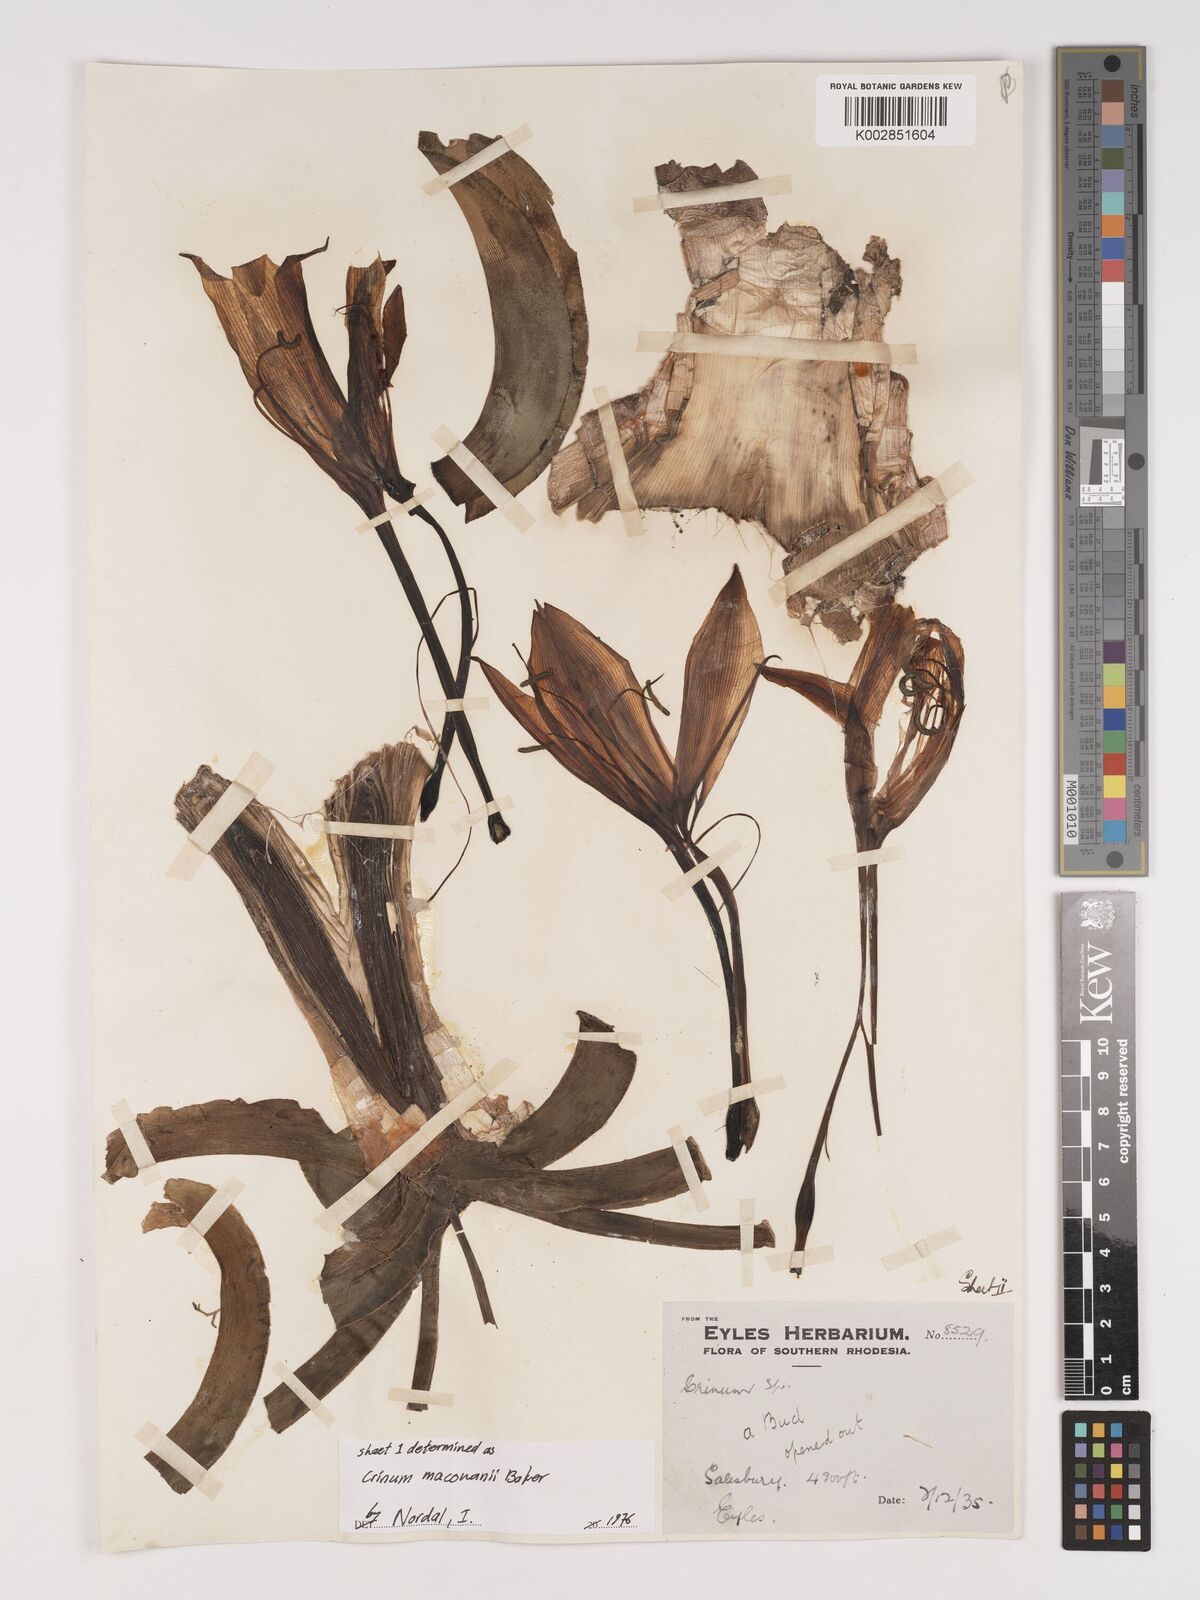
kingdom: Plantae
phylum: Tracheophyta
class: Liliopsida
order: Asparagales
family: Amaryllidaceae
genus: Crinum
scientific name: Crinum macowanii
